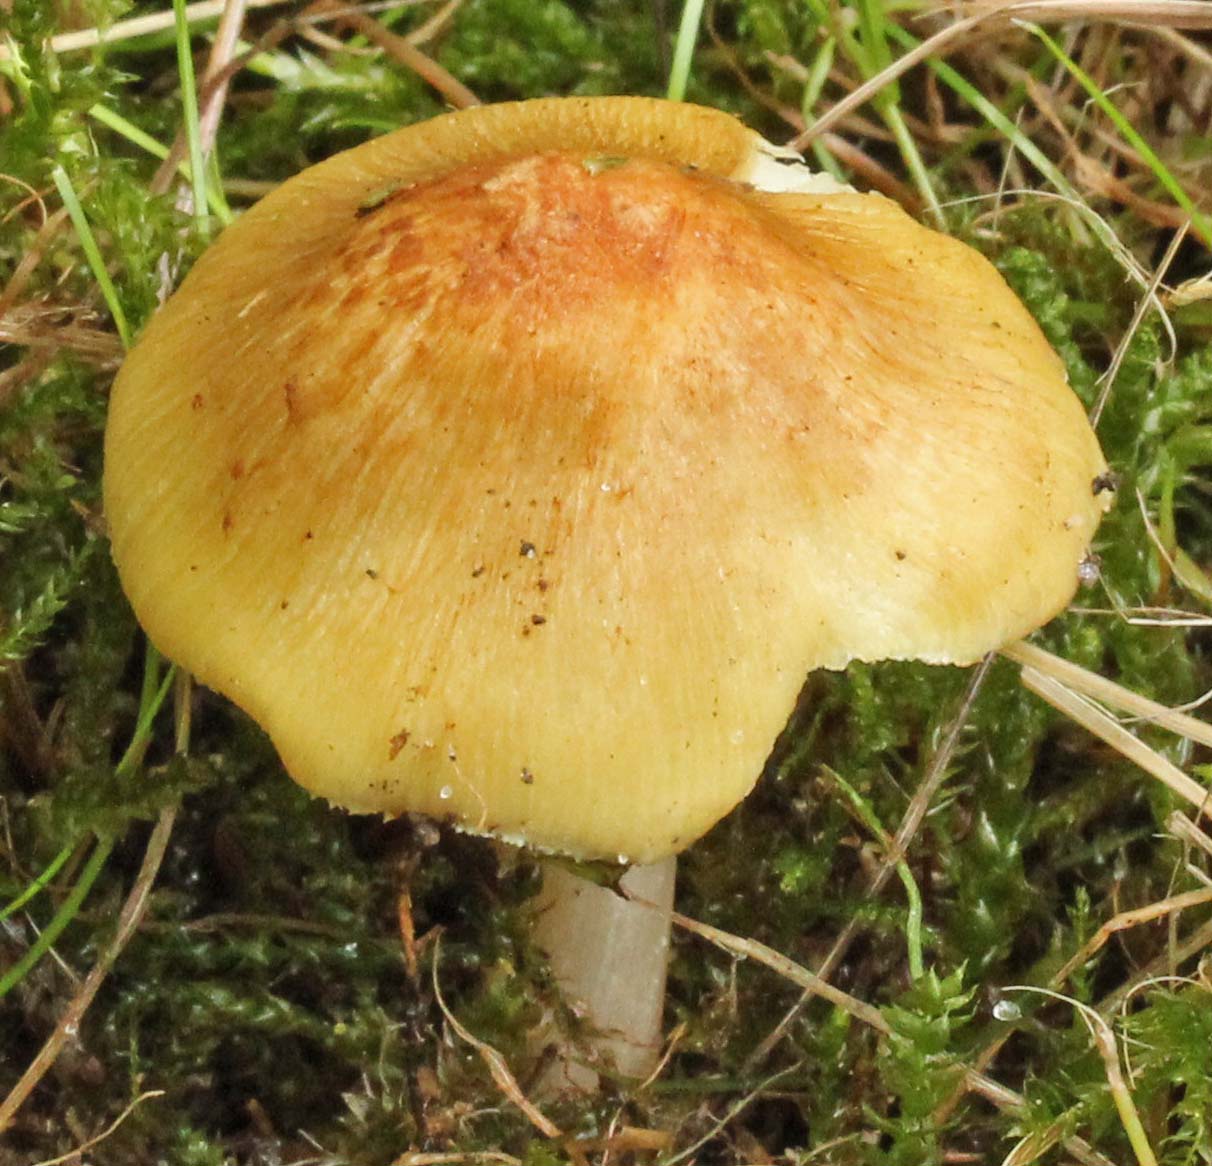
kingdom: Fungi
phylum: Basidiomycota
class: Agaricomycetes
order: Agaricales
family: Inocybaceae
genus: Pseudosperma
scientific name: Pseudosperma
